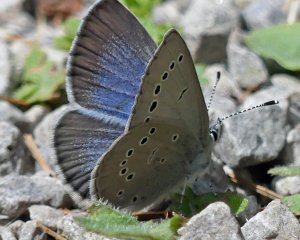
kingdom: Animalia
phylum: Arthropoda
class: Insecta
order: Lepidoptera
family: Lycaenidae
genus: Glaucopsyche
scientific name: Glaucopsyche lygdamus
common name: Silvery Blue
